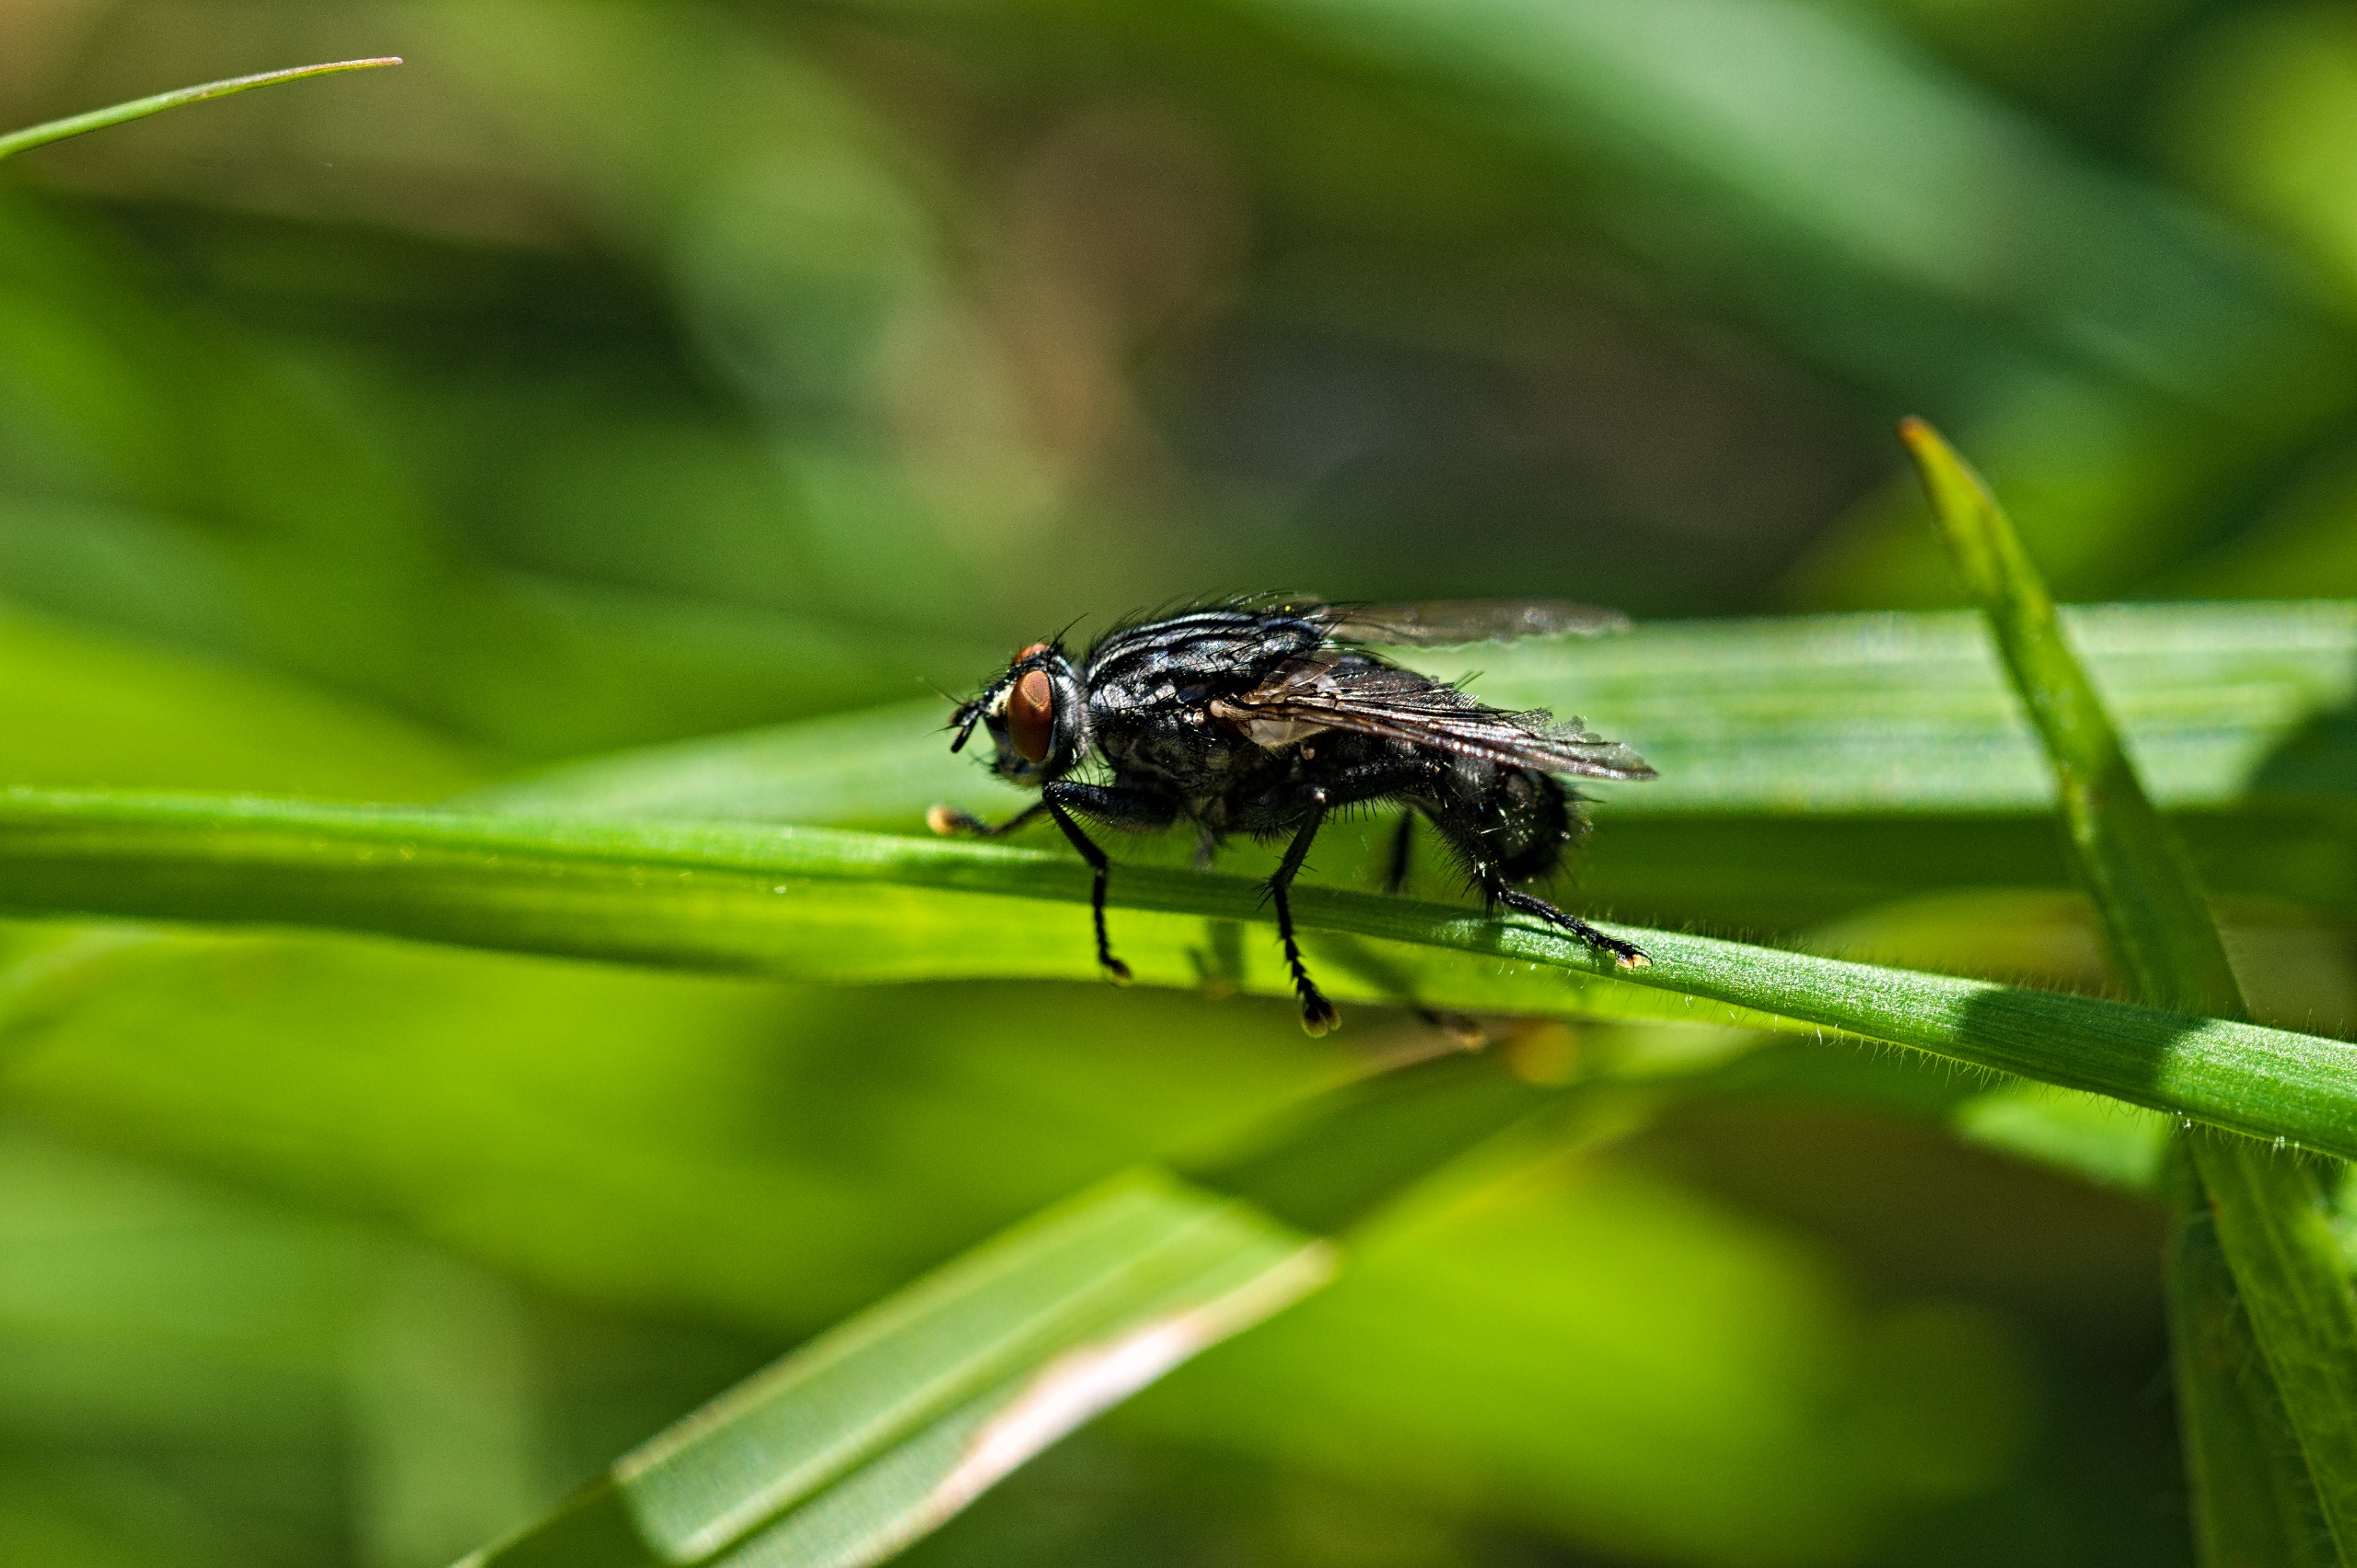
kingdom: Animalia
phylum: Arthropoda
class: Insecta
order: Diptera
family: Sarcophagidae
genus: Sarcophaga
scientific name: Sarcophaga
